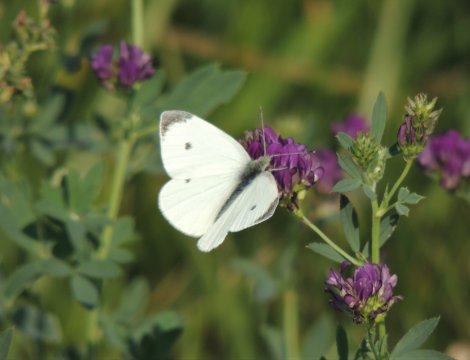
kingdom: Animalia
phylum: Arthropoda
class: Insecta
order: Lepidoptera
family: Pieridae
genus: Pieris
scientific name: Pieris rapae
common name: Cabbage White
